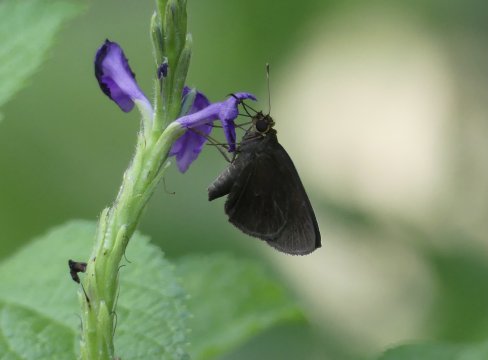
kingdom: Animalia
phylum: Arthropoda
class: Insecta
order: Lepidoptera
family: Hesperiidae
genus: Nastra
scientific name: Nastra insignis
